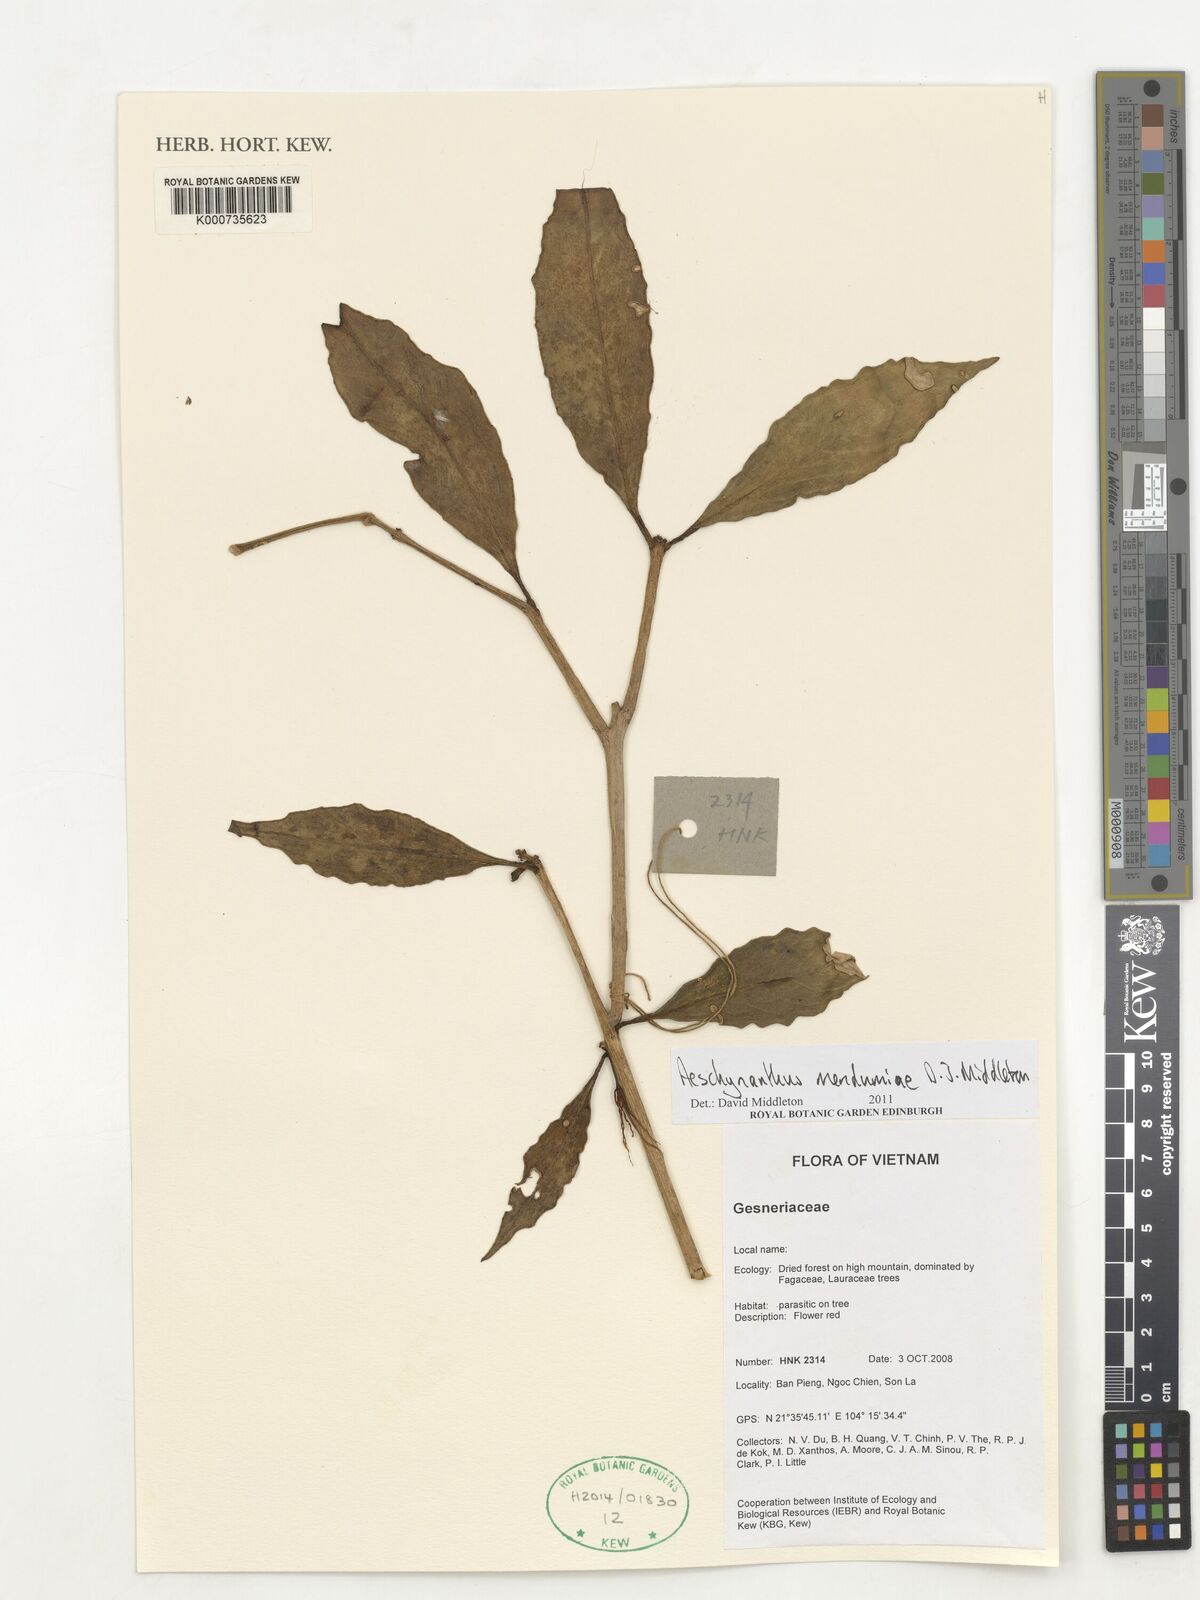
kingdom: Plantae
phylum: Tracheophyta
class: Magnoliopsida
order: Lamiales
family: Gesneriaceae
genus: Aeschynanthus
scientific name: Aeschynanthus mendumiae
